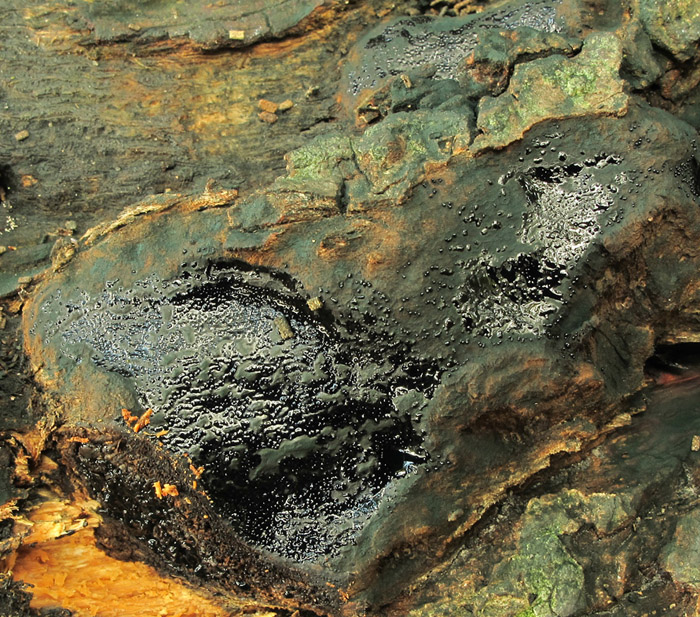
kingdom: Fungi
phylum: Ascomycota
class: Sordariomycetes
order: Boliniales
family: Boliniaceae
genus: Camarops
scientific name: Camarops tubulina
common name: knudret kulsnegl
